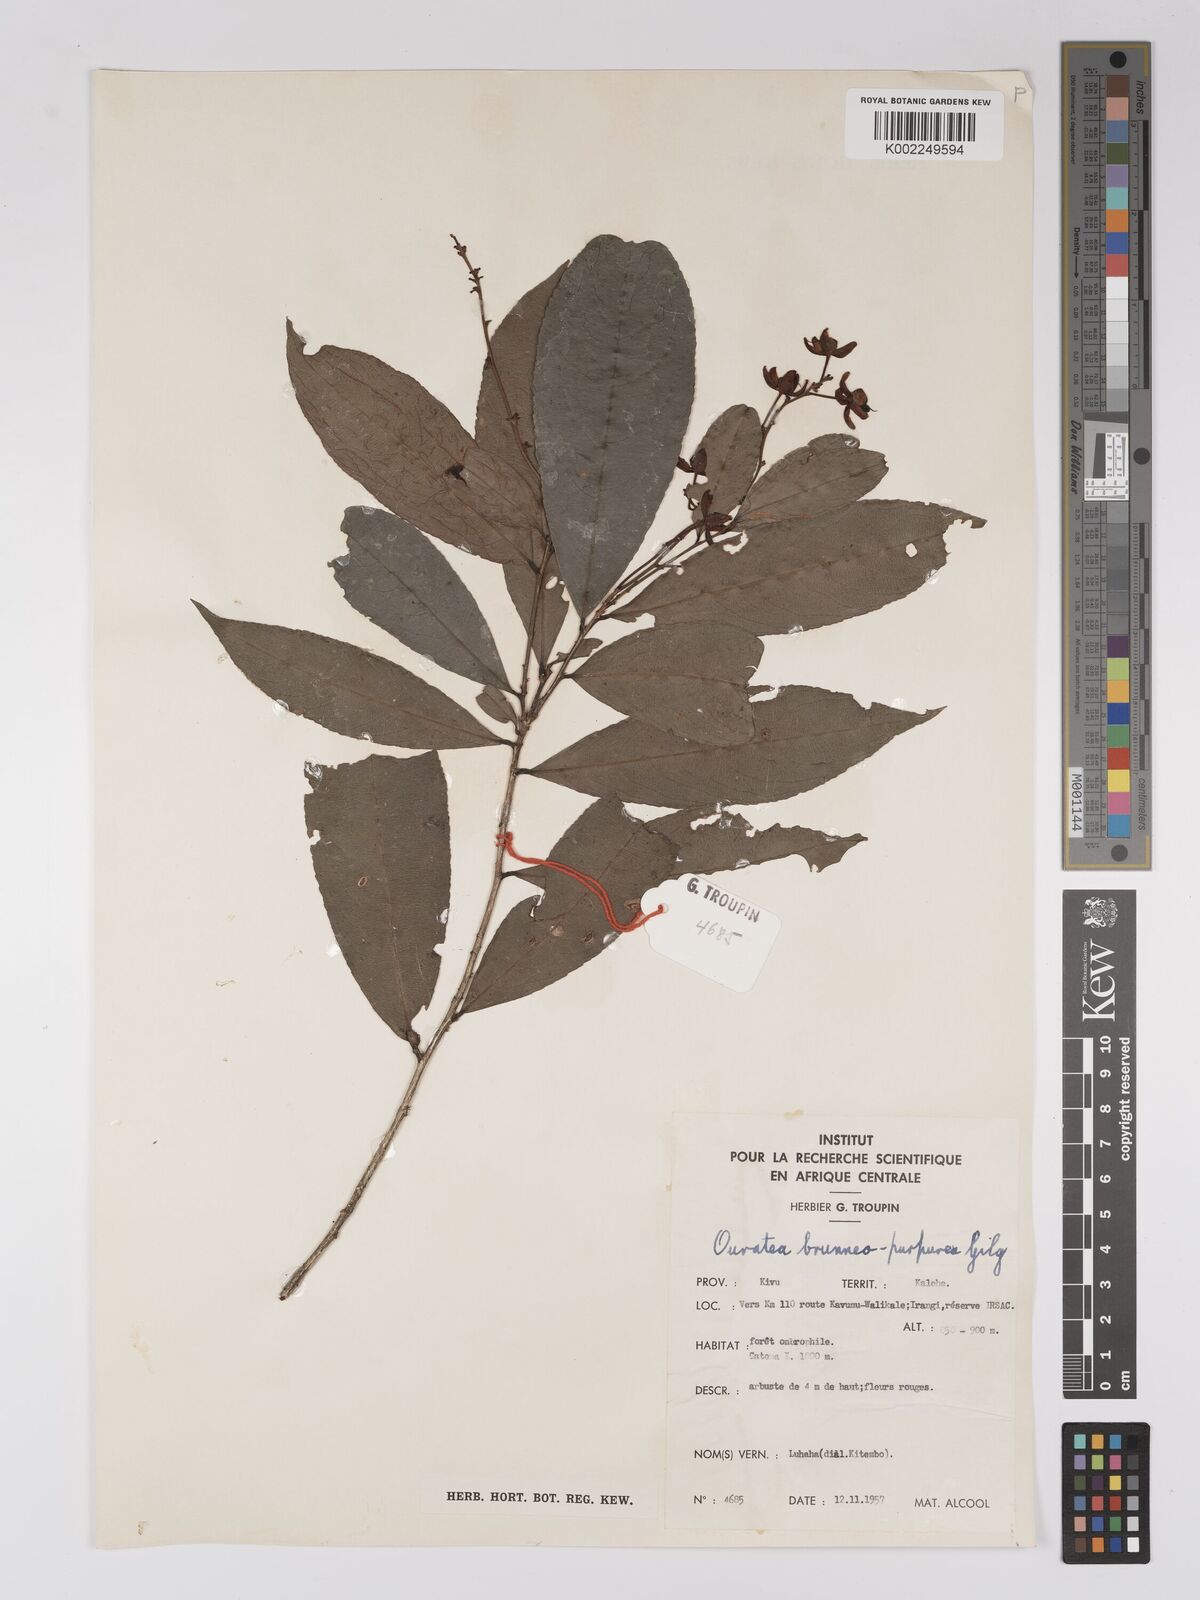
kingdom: Plantae
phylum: Tracheophyta
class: Magnoliopsida
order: Malpighiales
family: Ochnaceae
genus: Campylospermum
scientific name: Campylospermum reticulatum
